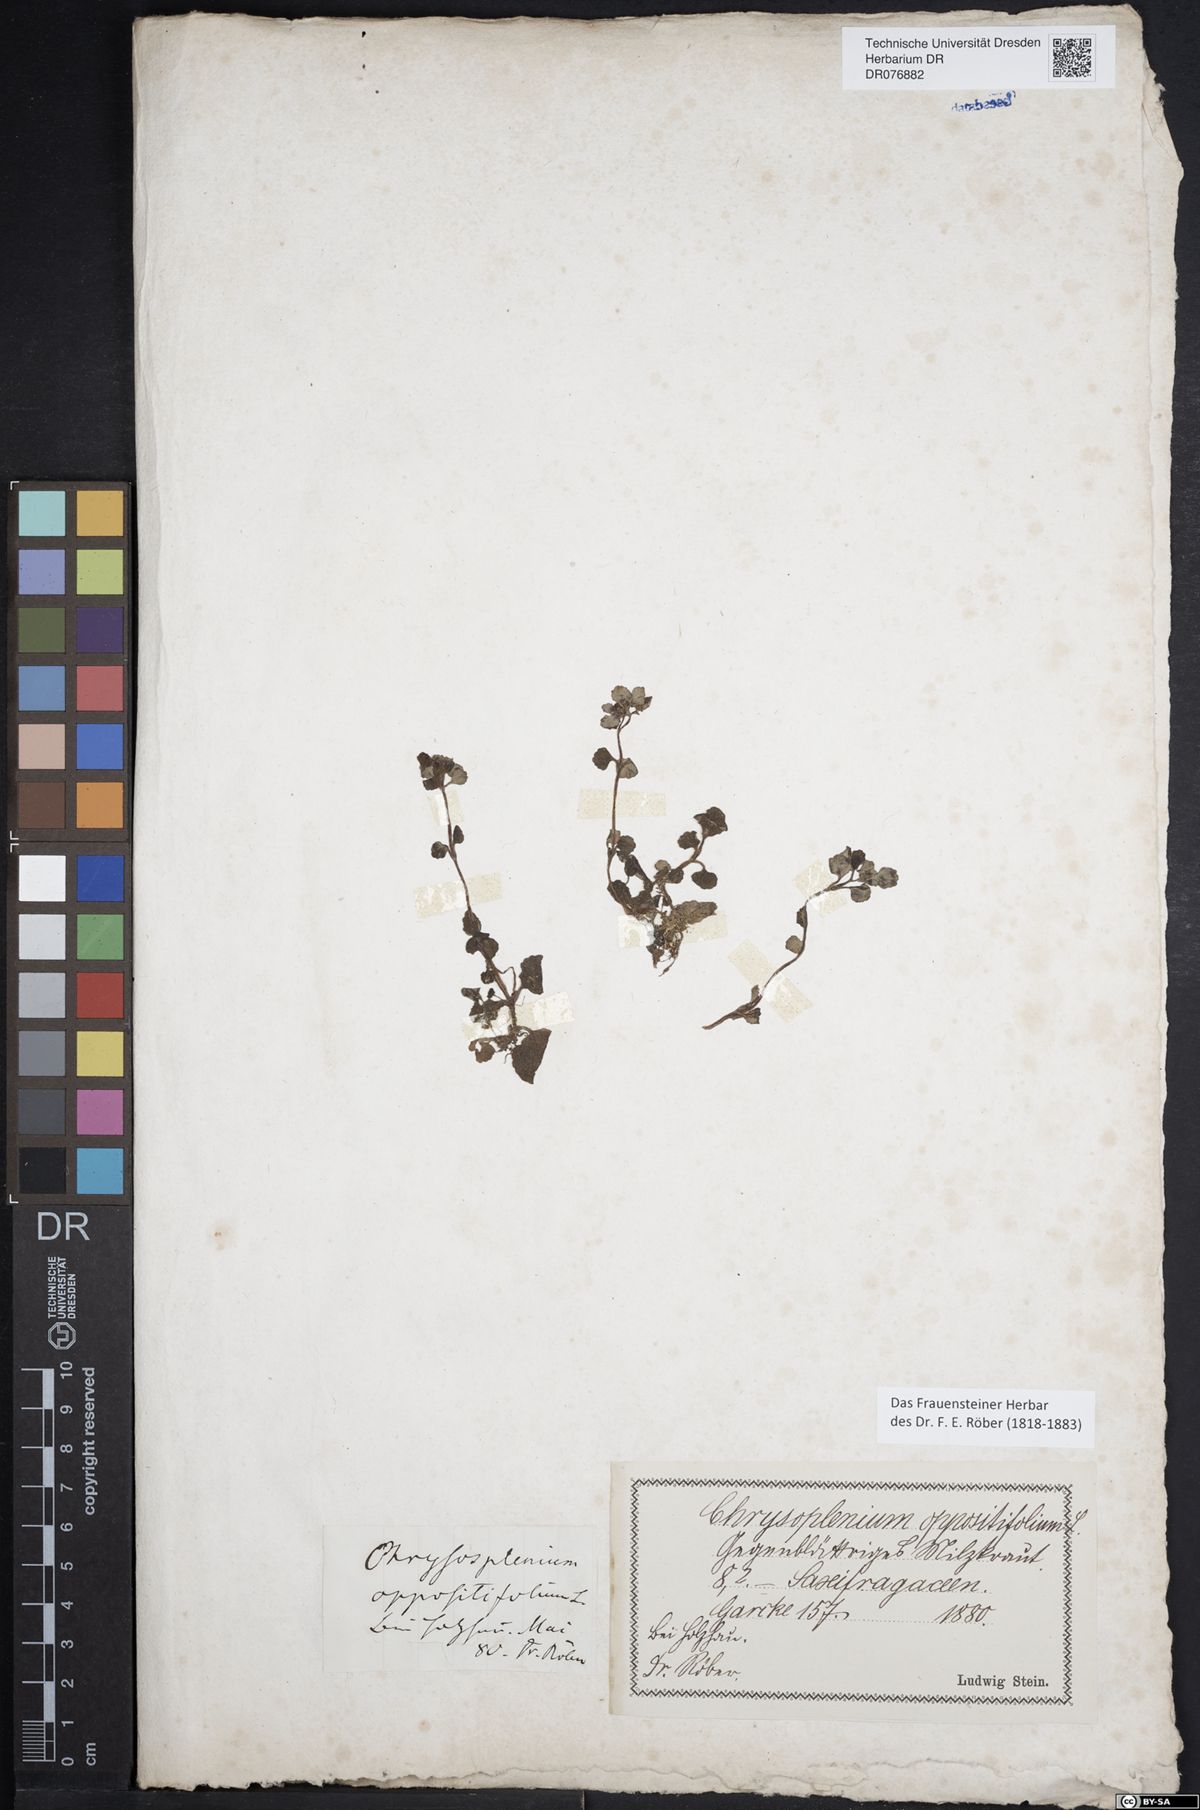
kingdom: Plantae
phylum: Tracheophyta
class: Magnoliopsida
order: Saxifragales
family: Saxifragaceae
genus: Chrysosplenium
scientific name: Chrysosplenium oppositifolium
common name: Opposite-leaved golden-saxifrage
